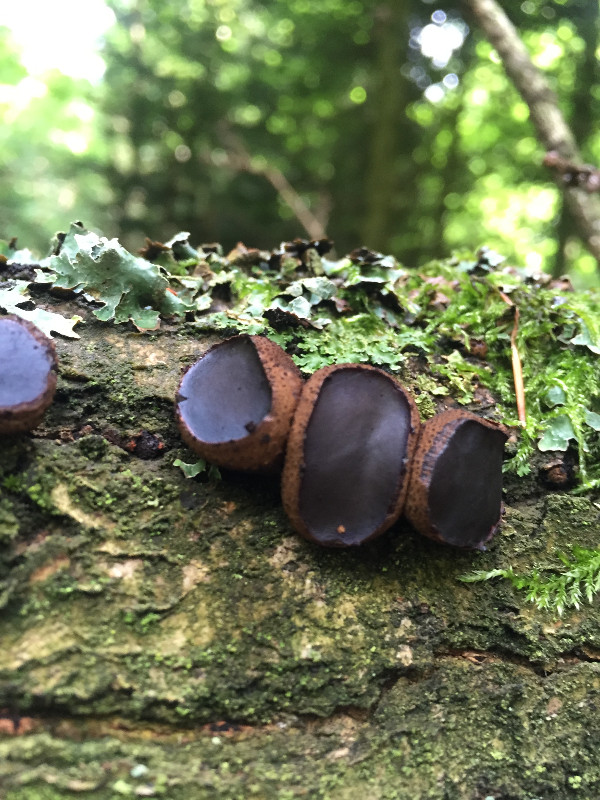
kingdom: Fungi
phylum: Ascomycota
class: Leotiomycetes
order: Phacidiales
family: Phacidiaceae
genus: Bulgaria
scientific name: Bulgaria inquinans
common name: afsmittende topsvamp
